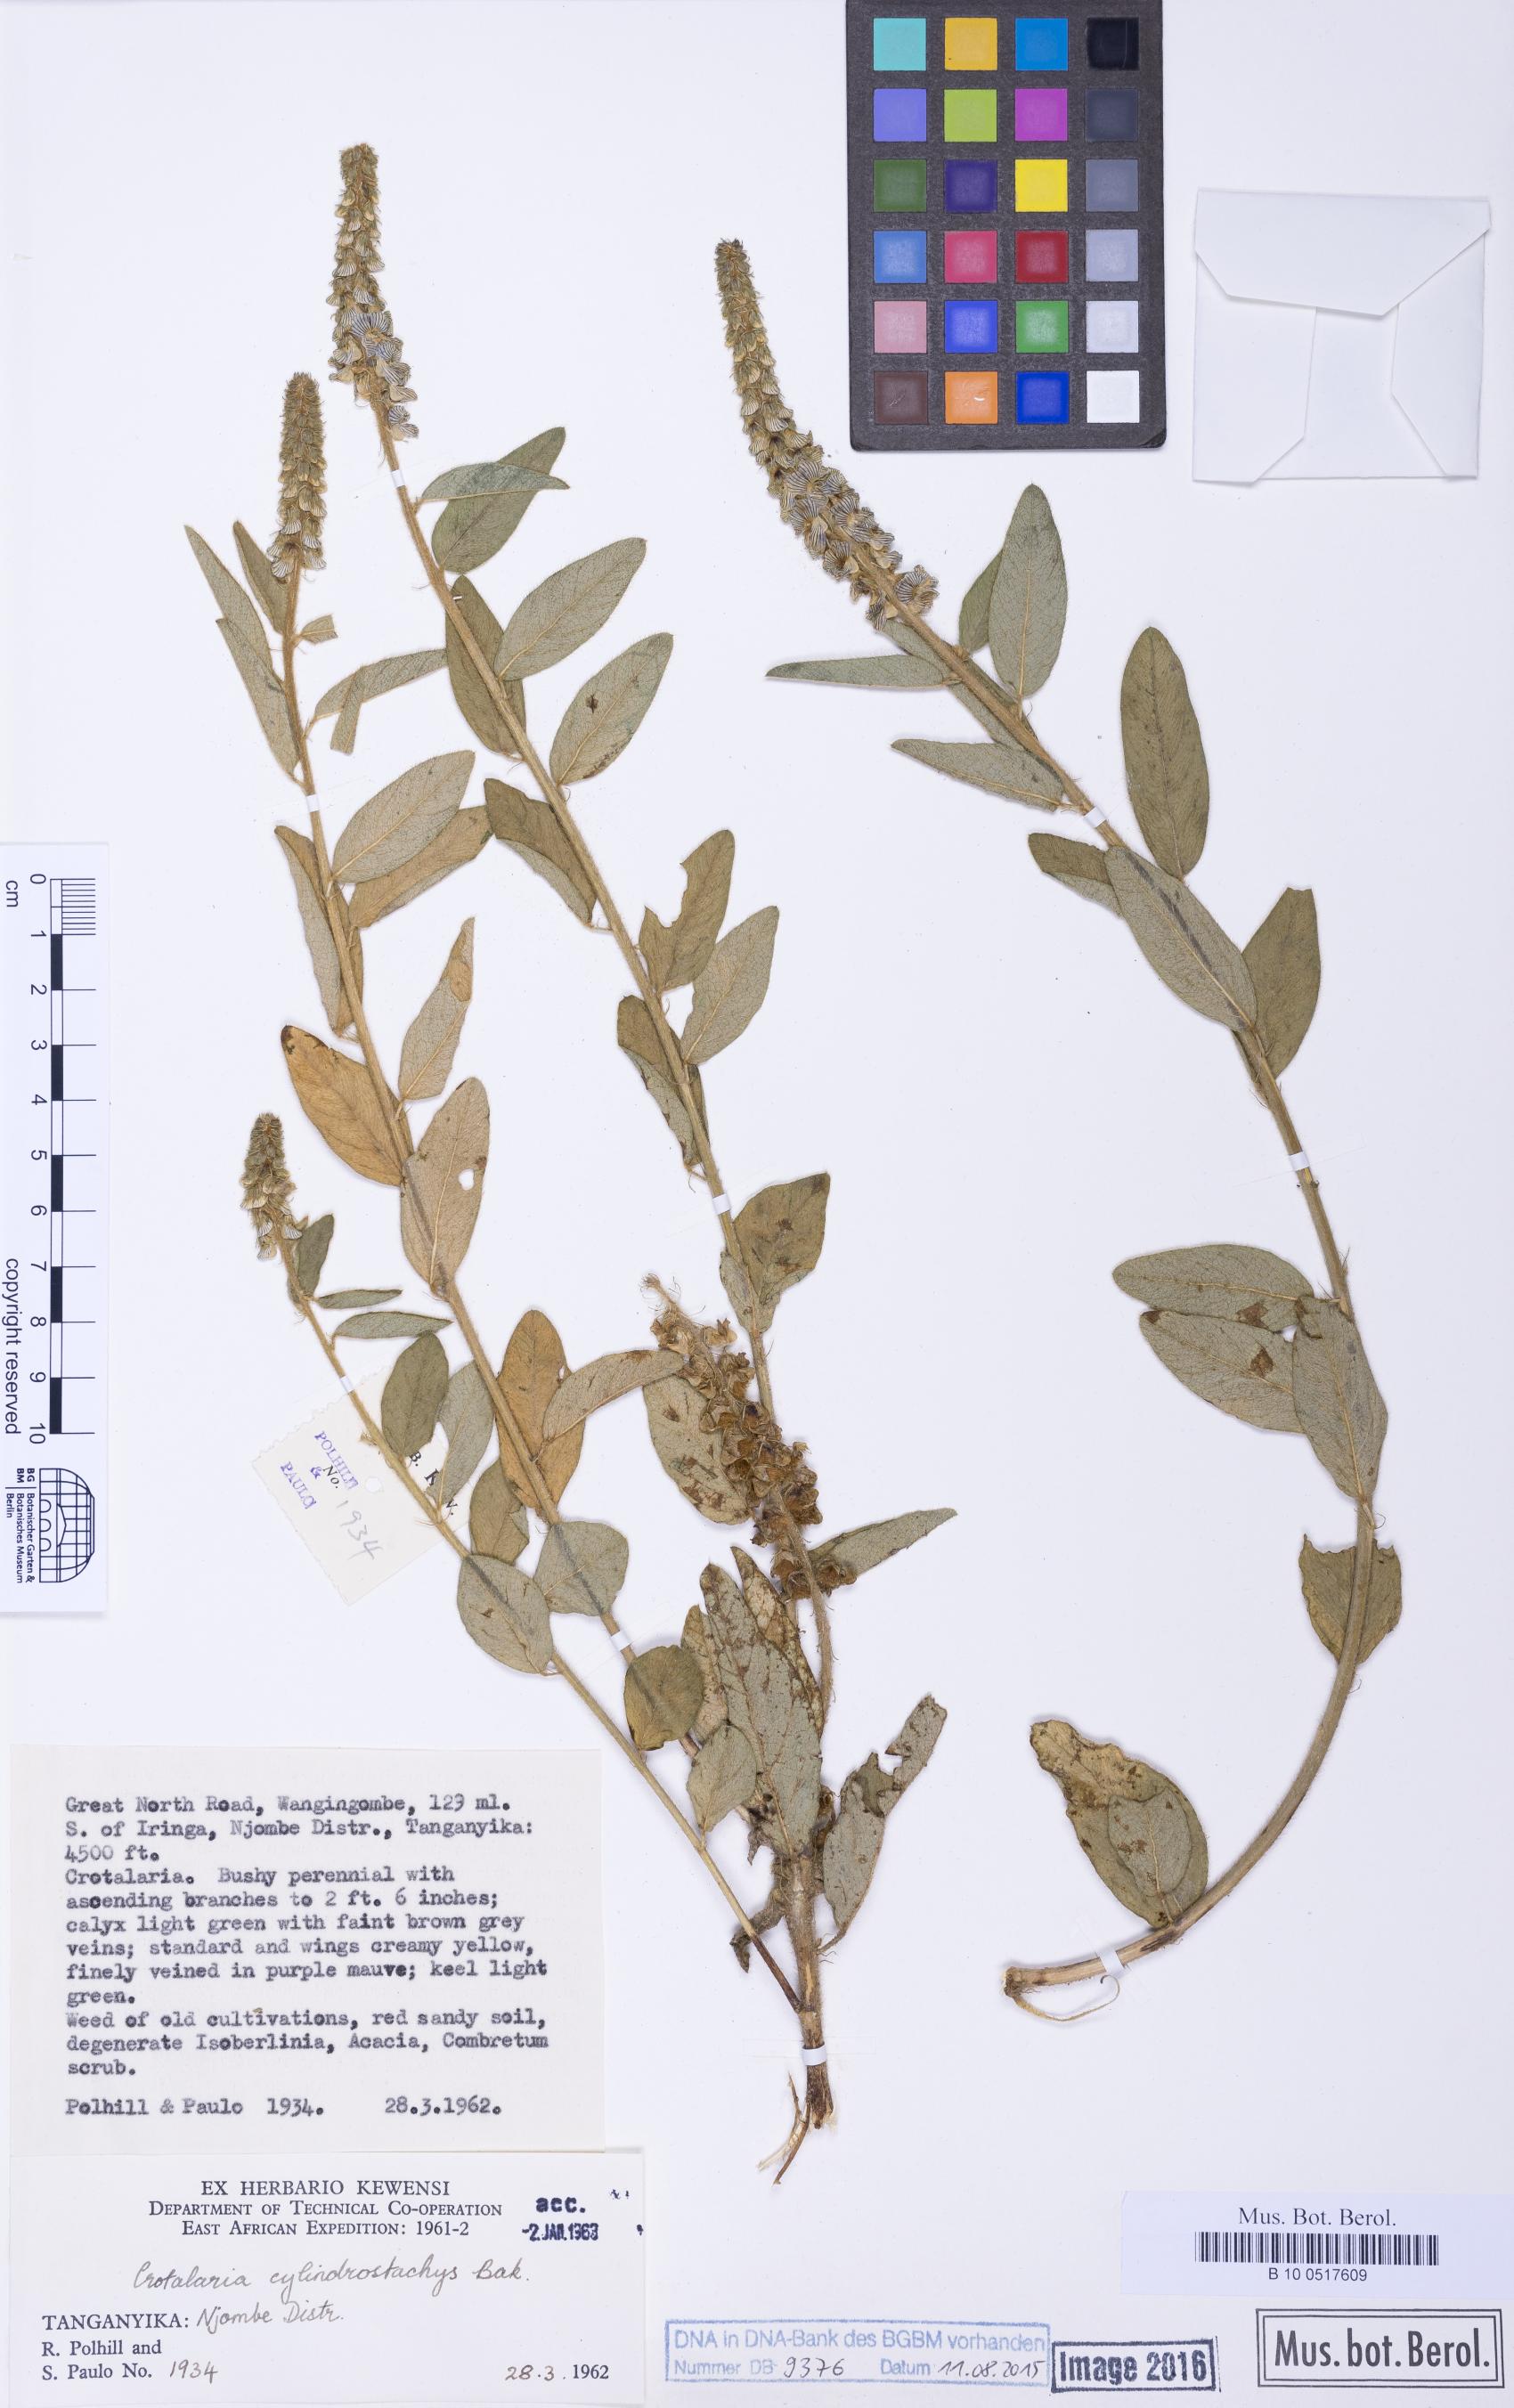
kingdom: Plantae
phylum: Tracheophyta
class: Magnoliopsida
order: Fabales
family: Fabaceae
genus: Crotalaria
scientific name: Crotalaria cylindrostachys
